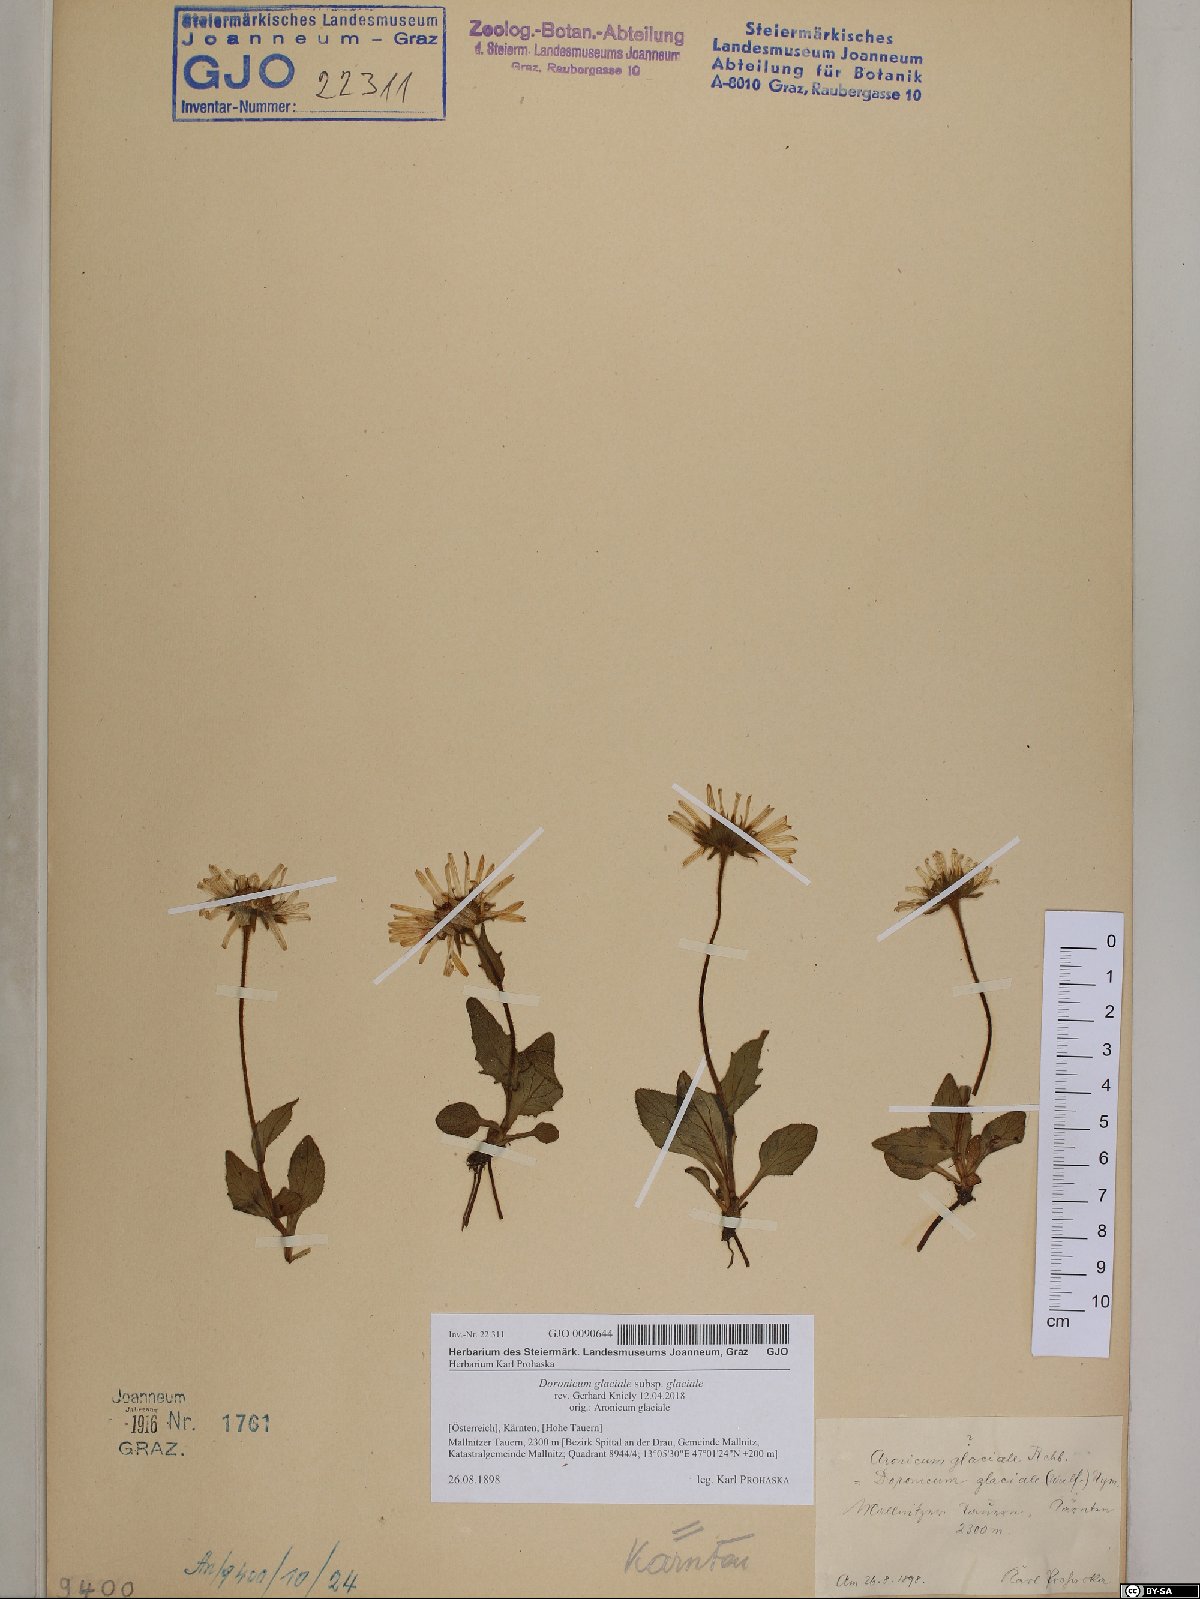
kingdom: Plantae
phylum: Tracheophyta
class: Magnoliopsida
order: Asterales
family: Asteraceae
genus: Doronicum
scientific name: Doronicum glaciale
